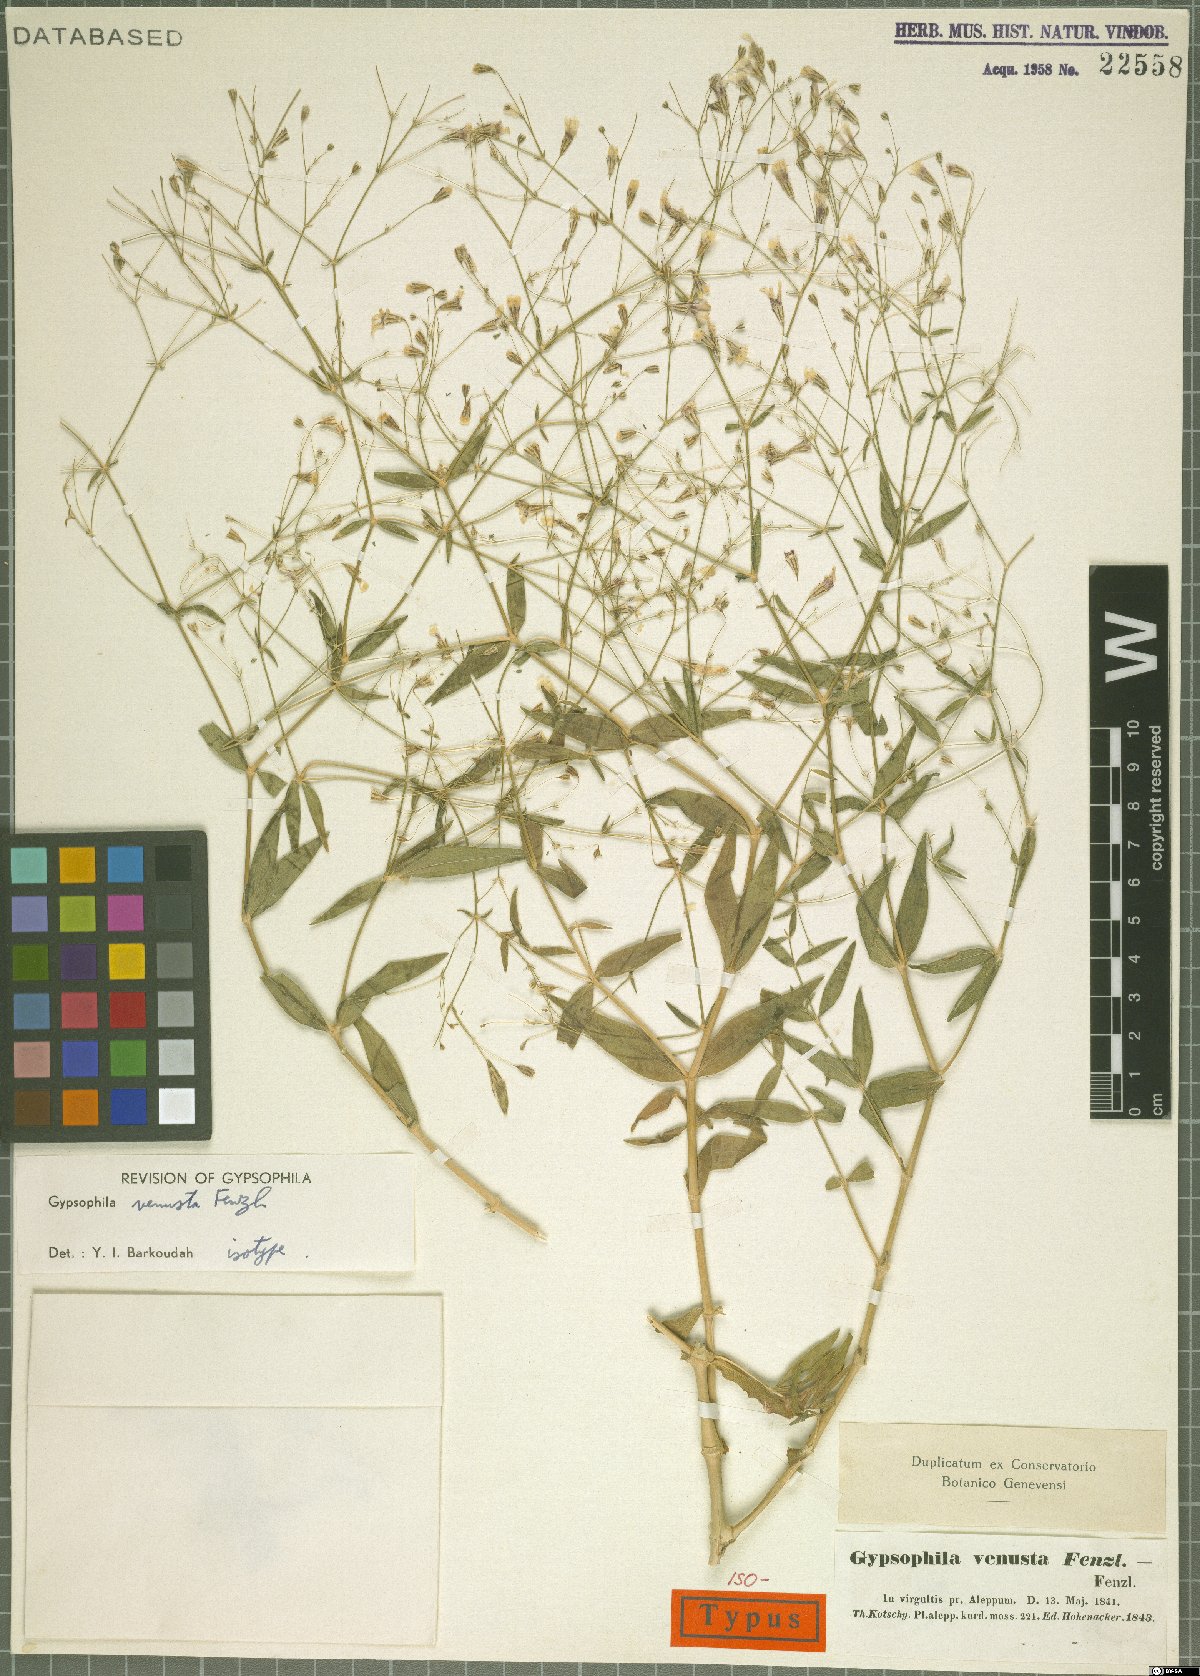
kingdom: Plantae
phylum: Tracheophyta
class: Magnoliopsida
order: Caryophyllales
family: Caryophyllaceae
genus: Gypsophila
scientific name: Gypsophila venusta
